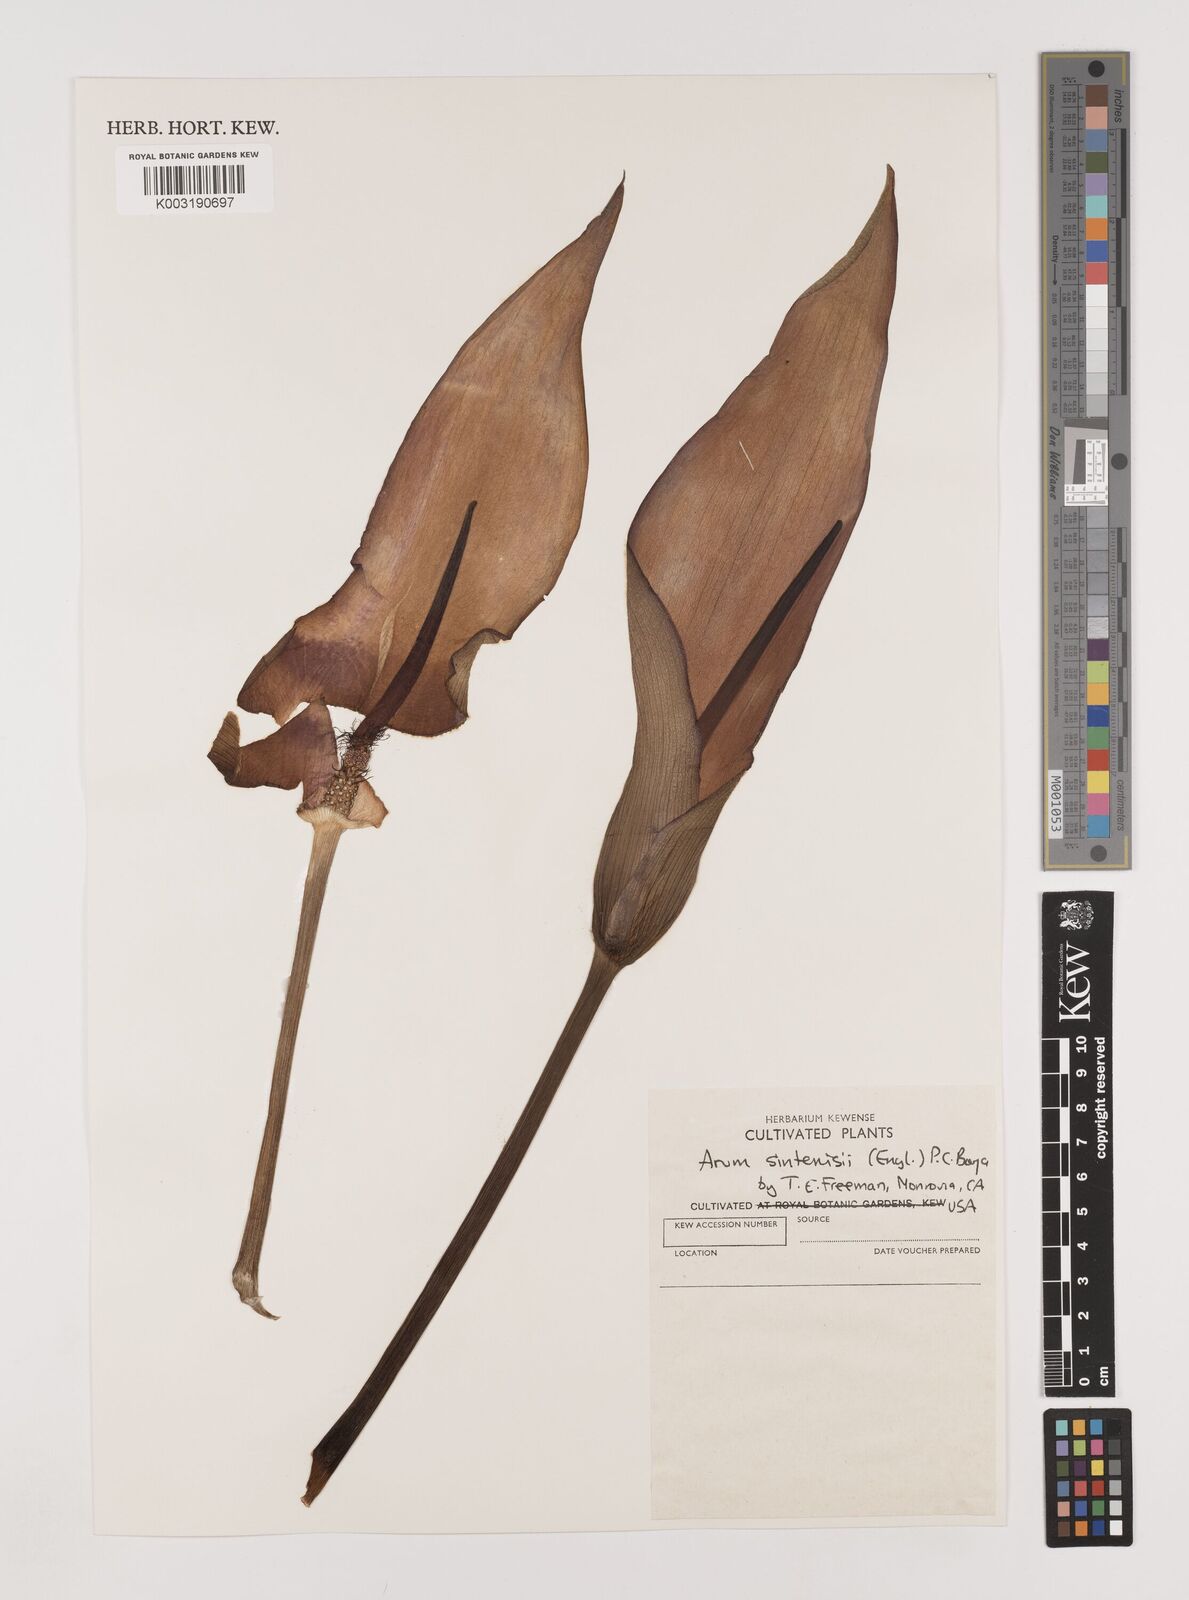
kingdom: Plantae
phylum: Tracheophyta
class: Liliopsida
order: Alismatales
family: Araceae
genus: Arum
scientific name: Arum sintenisii
